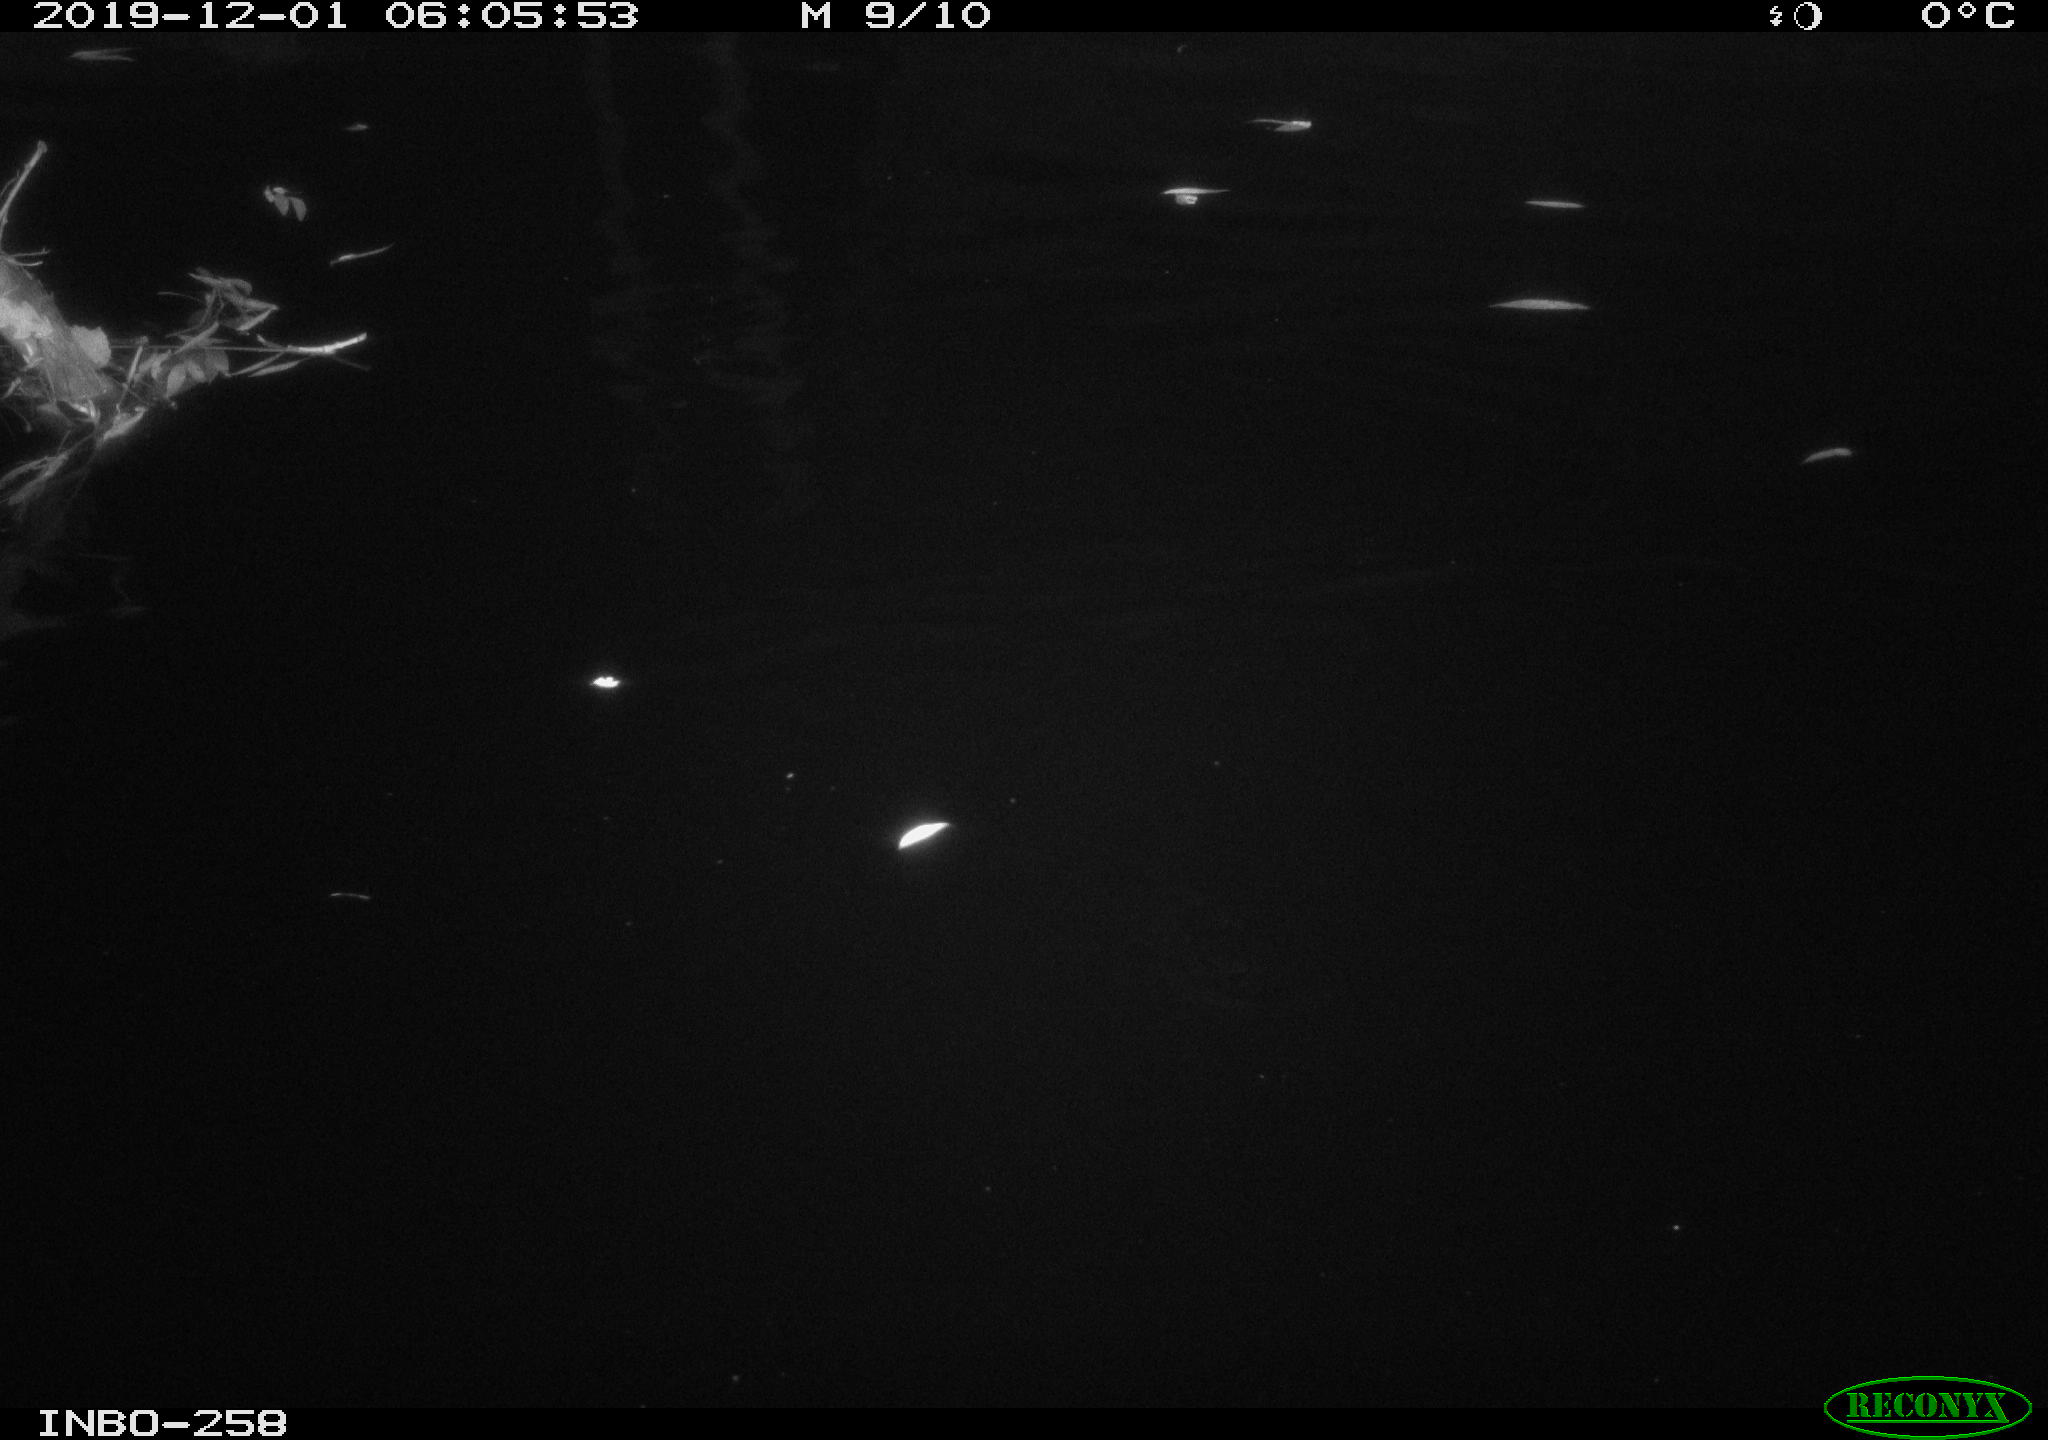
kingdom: Animalia
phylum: Chordata
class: Aves
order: Anseriformes
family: Anatidae
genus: Anas
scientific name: Anas platyrhynchos
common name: Mallard
